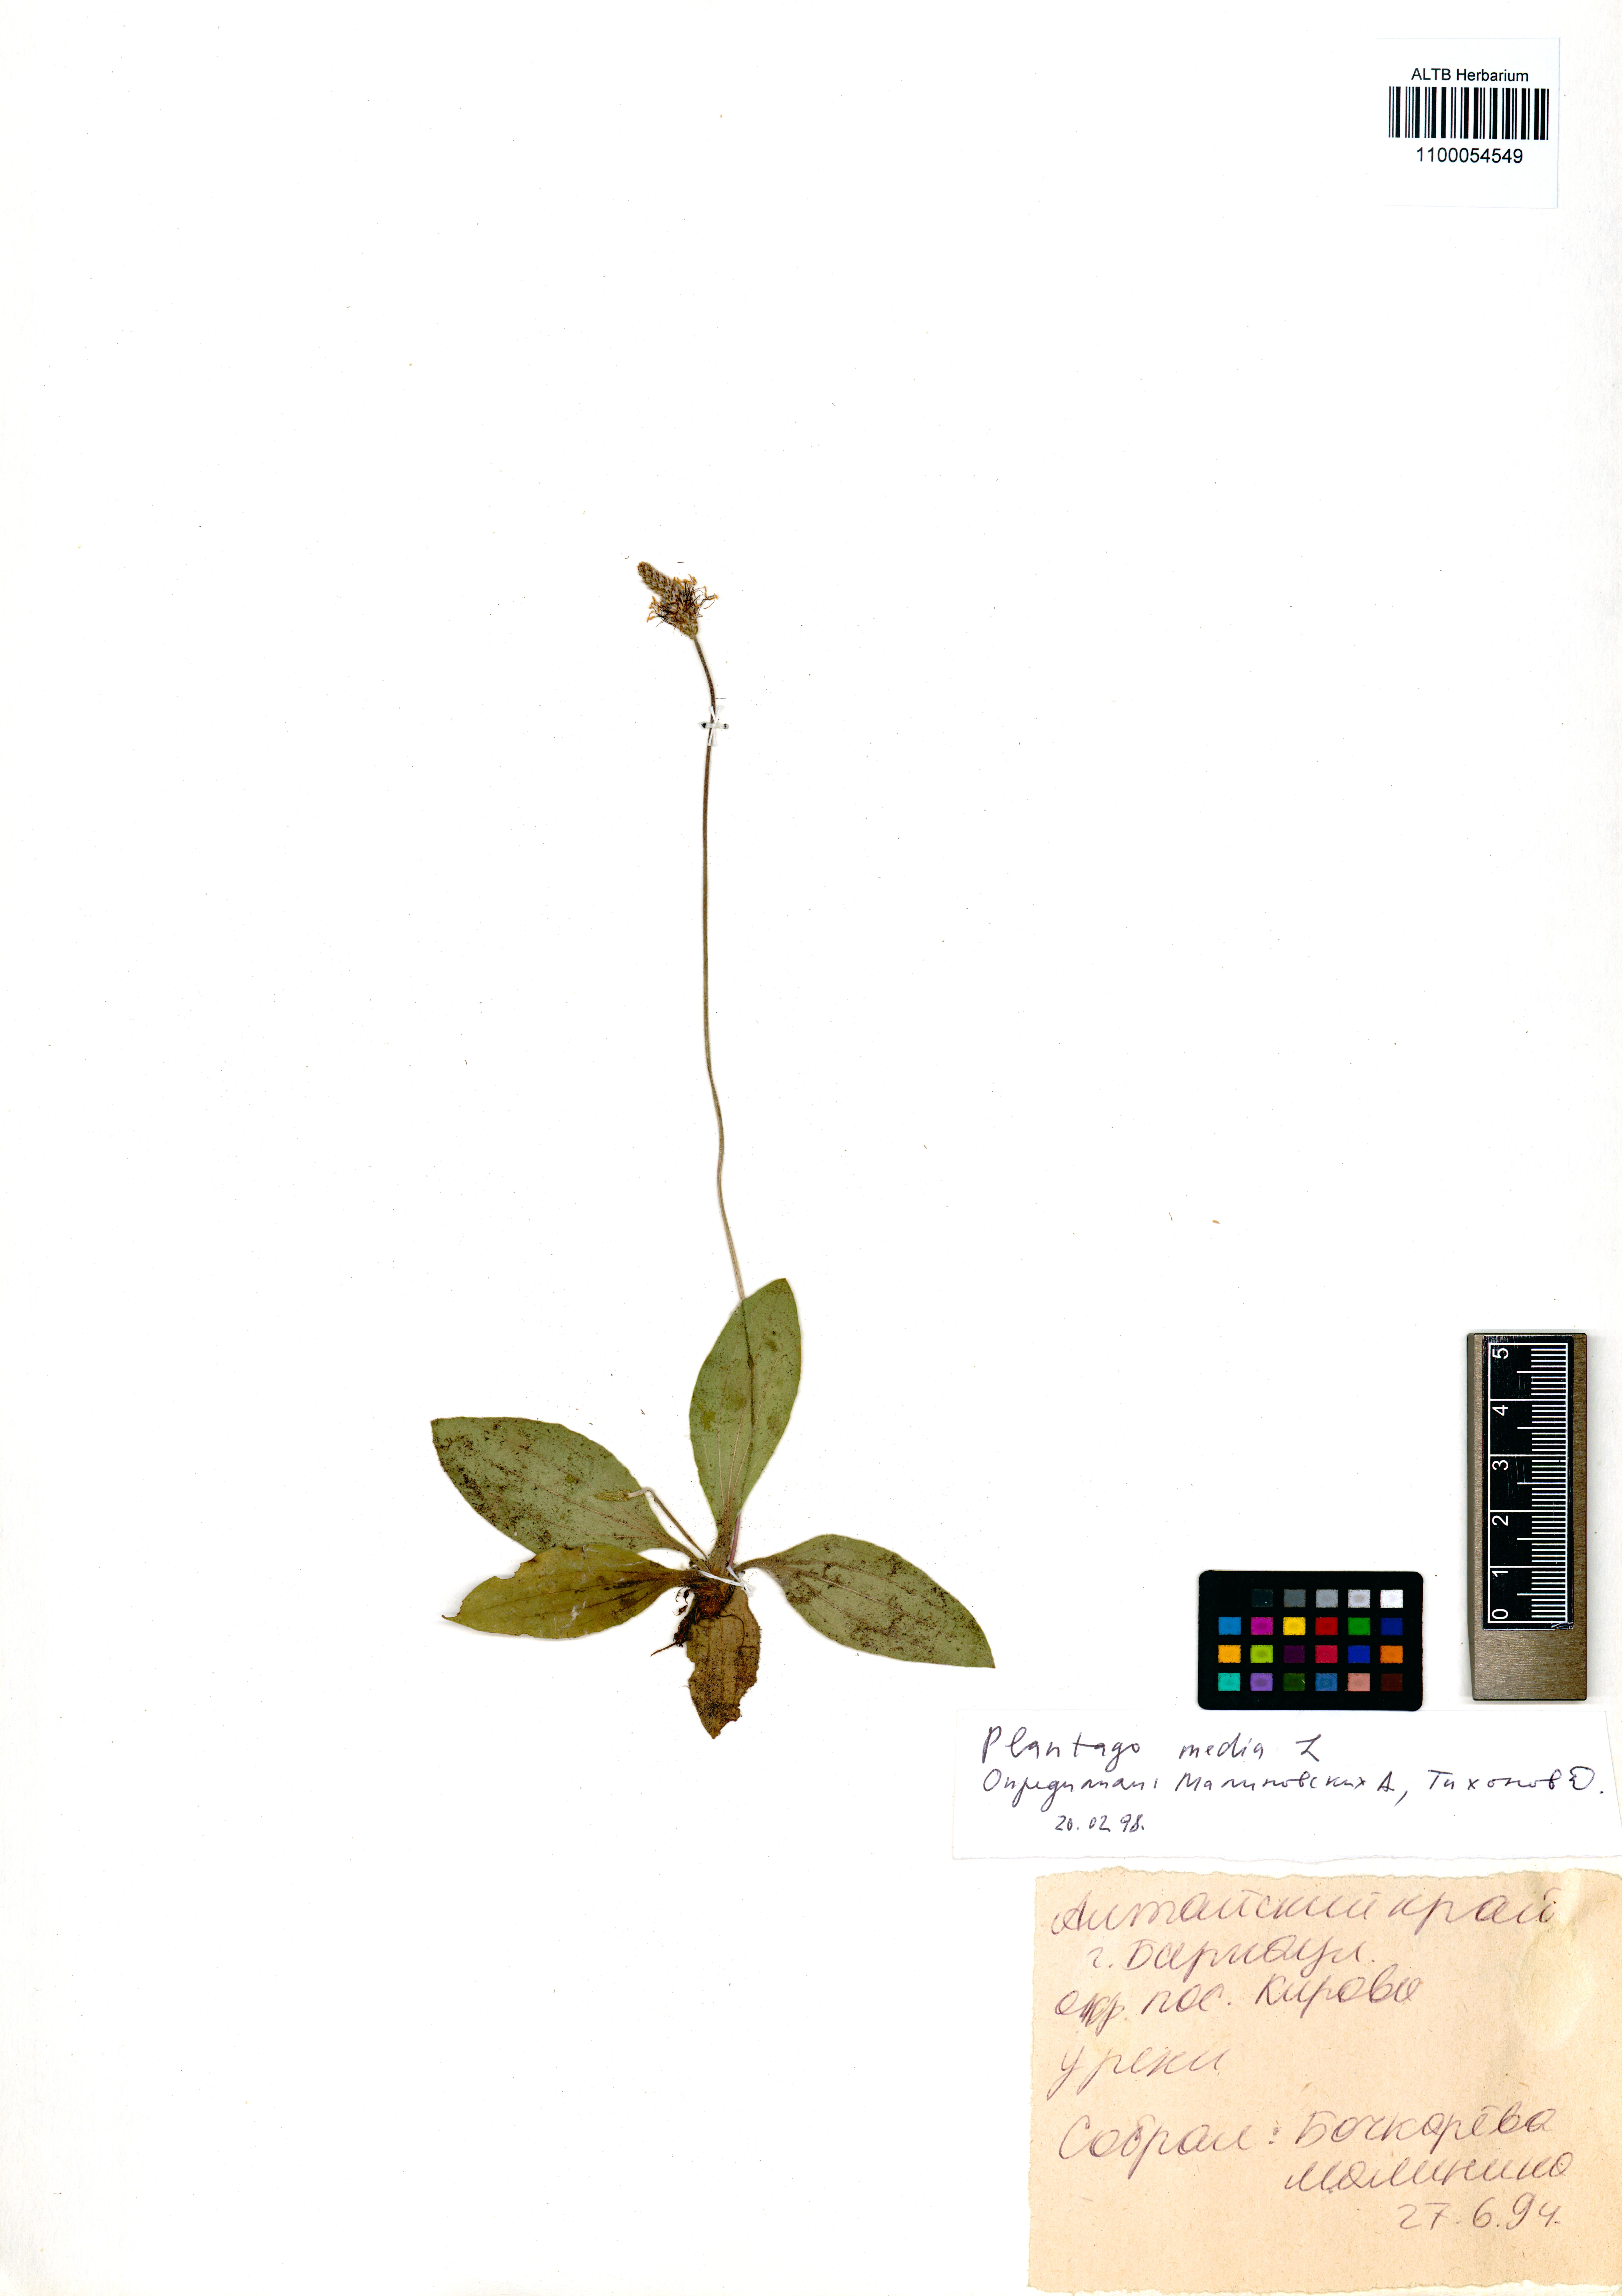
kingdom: Plantae
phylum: Tracheophyta
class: Magnoliopsida
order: Lamiales
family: Plantaginaceae
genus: Plantago
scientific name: Plantago media
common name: Hoary plantain
